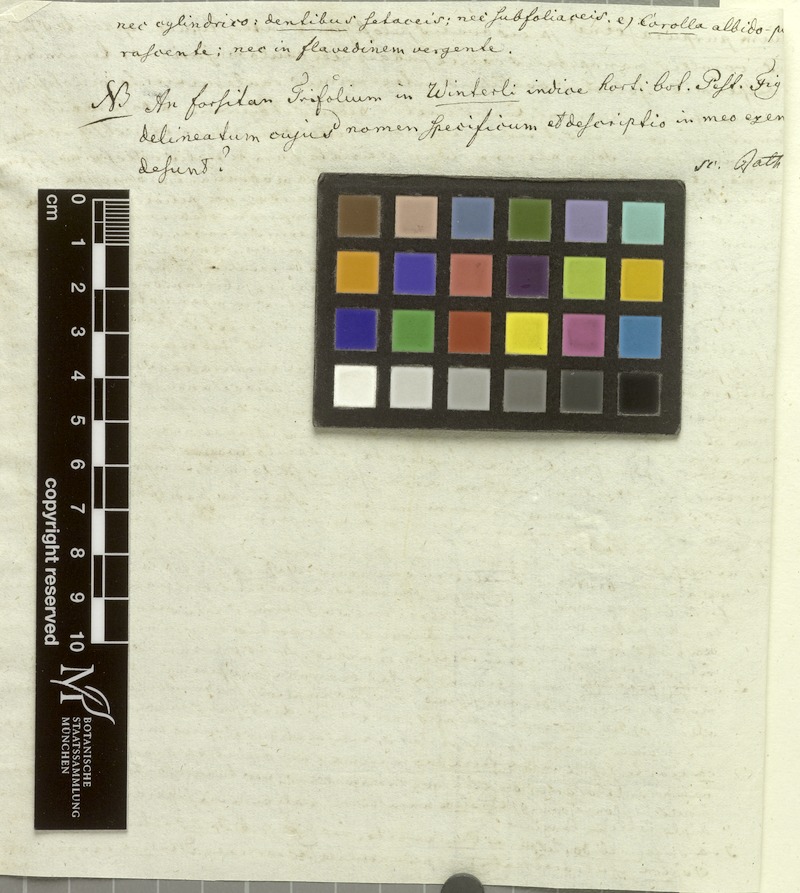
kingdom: Plantae
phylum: Tracheophyta
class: Magnoliopsida
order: Fabales
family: Fabaceae
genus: Trifolium
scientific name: Trifolium diffusum
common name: Diffuse clover
